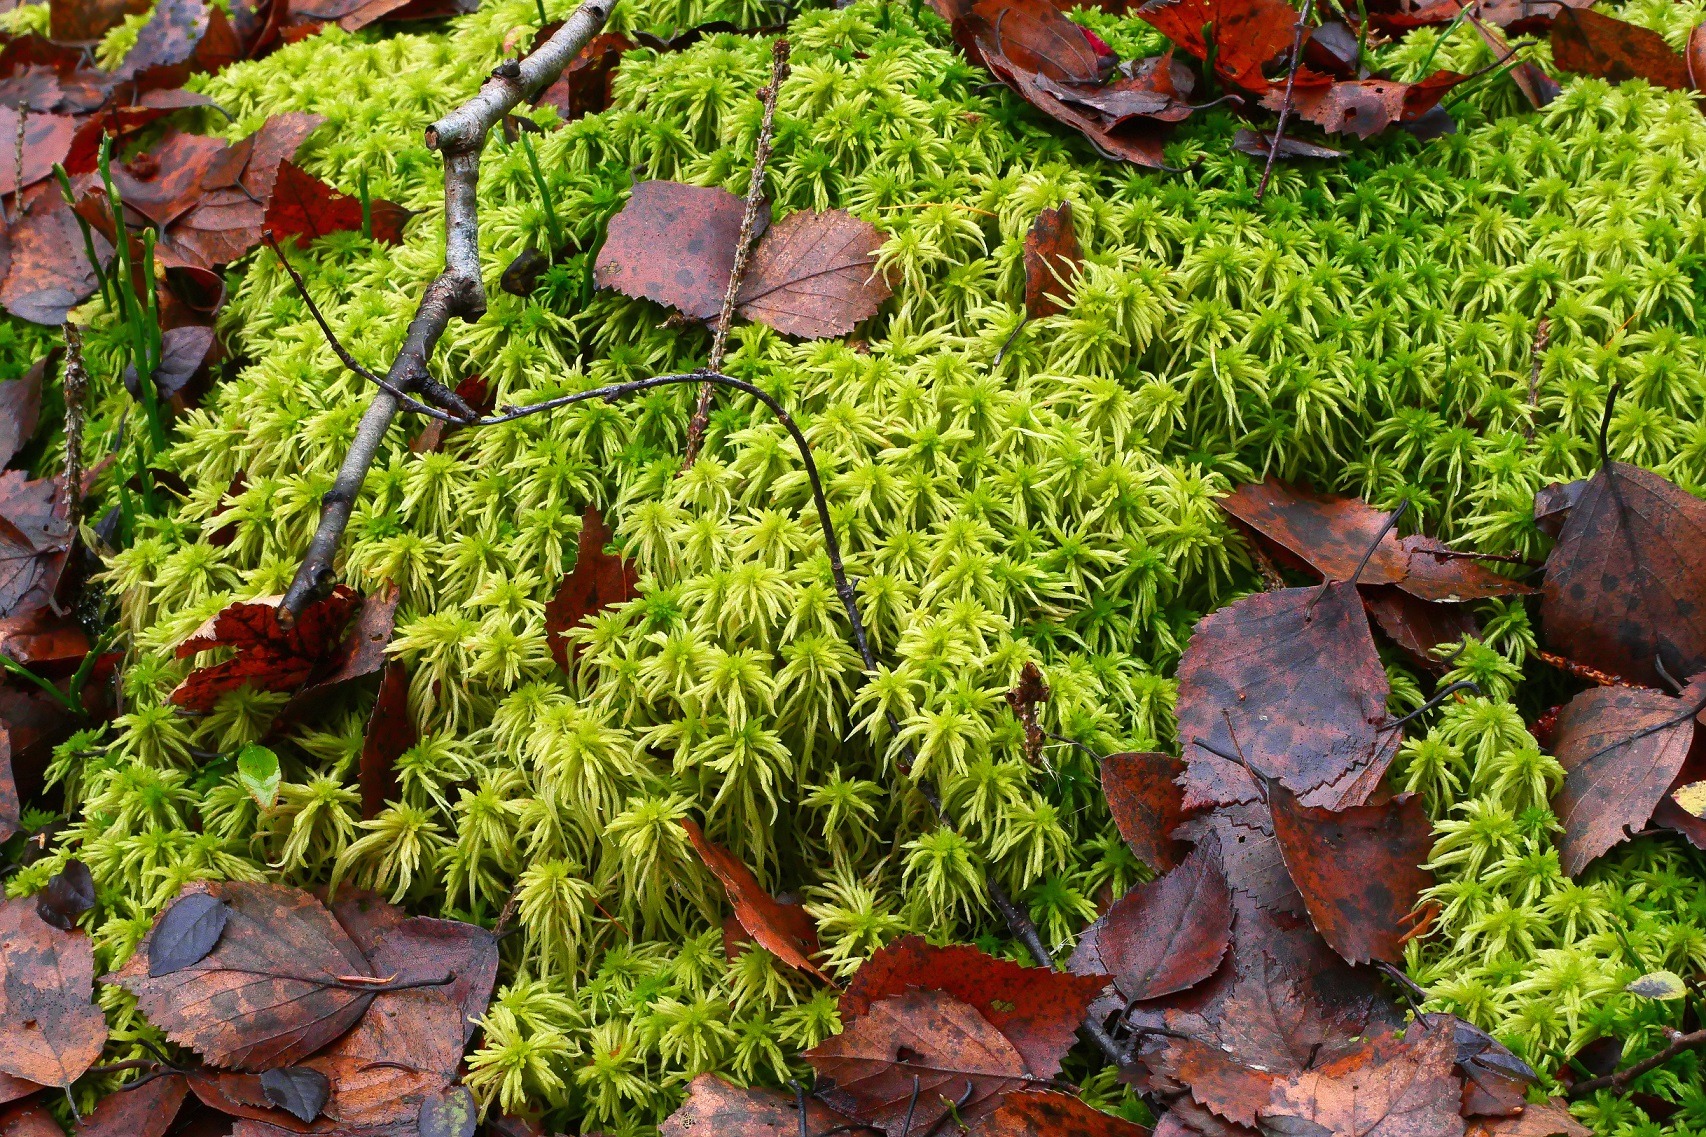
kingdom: Plantae
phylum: Bryophyta
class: Sphagnopsida
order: Sphagnales
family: Sphagnaceae
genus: Sphagnum
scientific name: Sphagnum girgensohnii
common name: Stiv tørvemos
